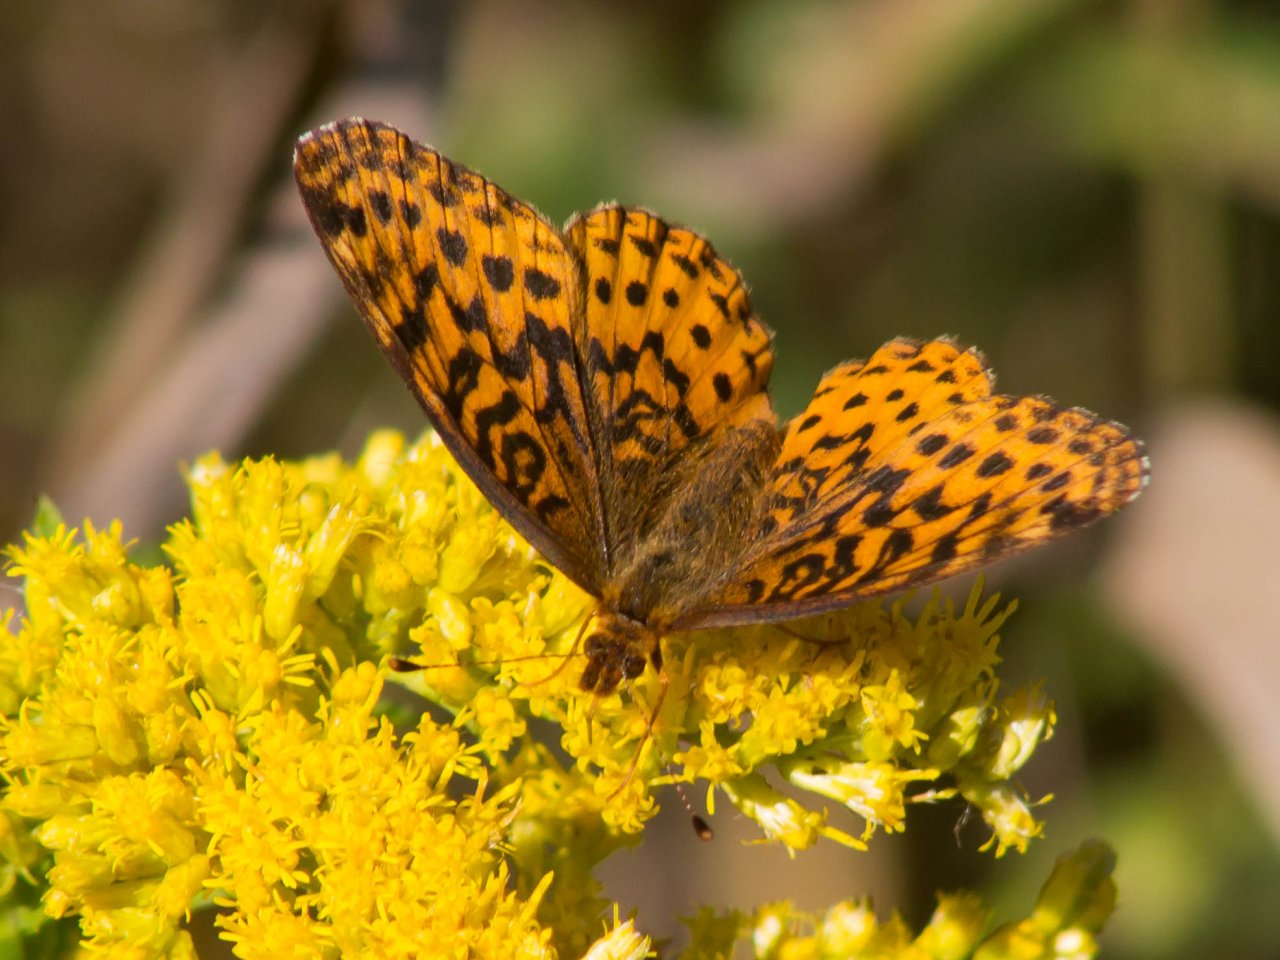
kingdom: Animalia
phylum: Arthropoda
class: Insecta
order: Lepidoptera
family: Nymphalidae
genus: Clossiana
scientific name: Clossiana toddi
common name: Meadow Fritillary
